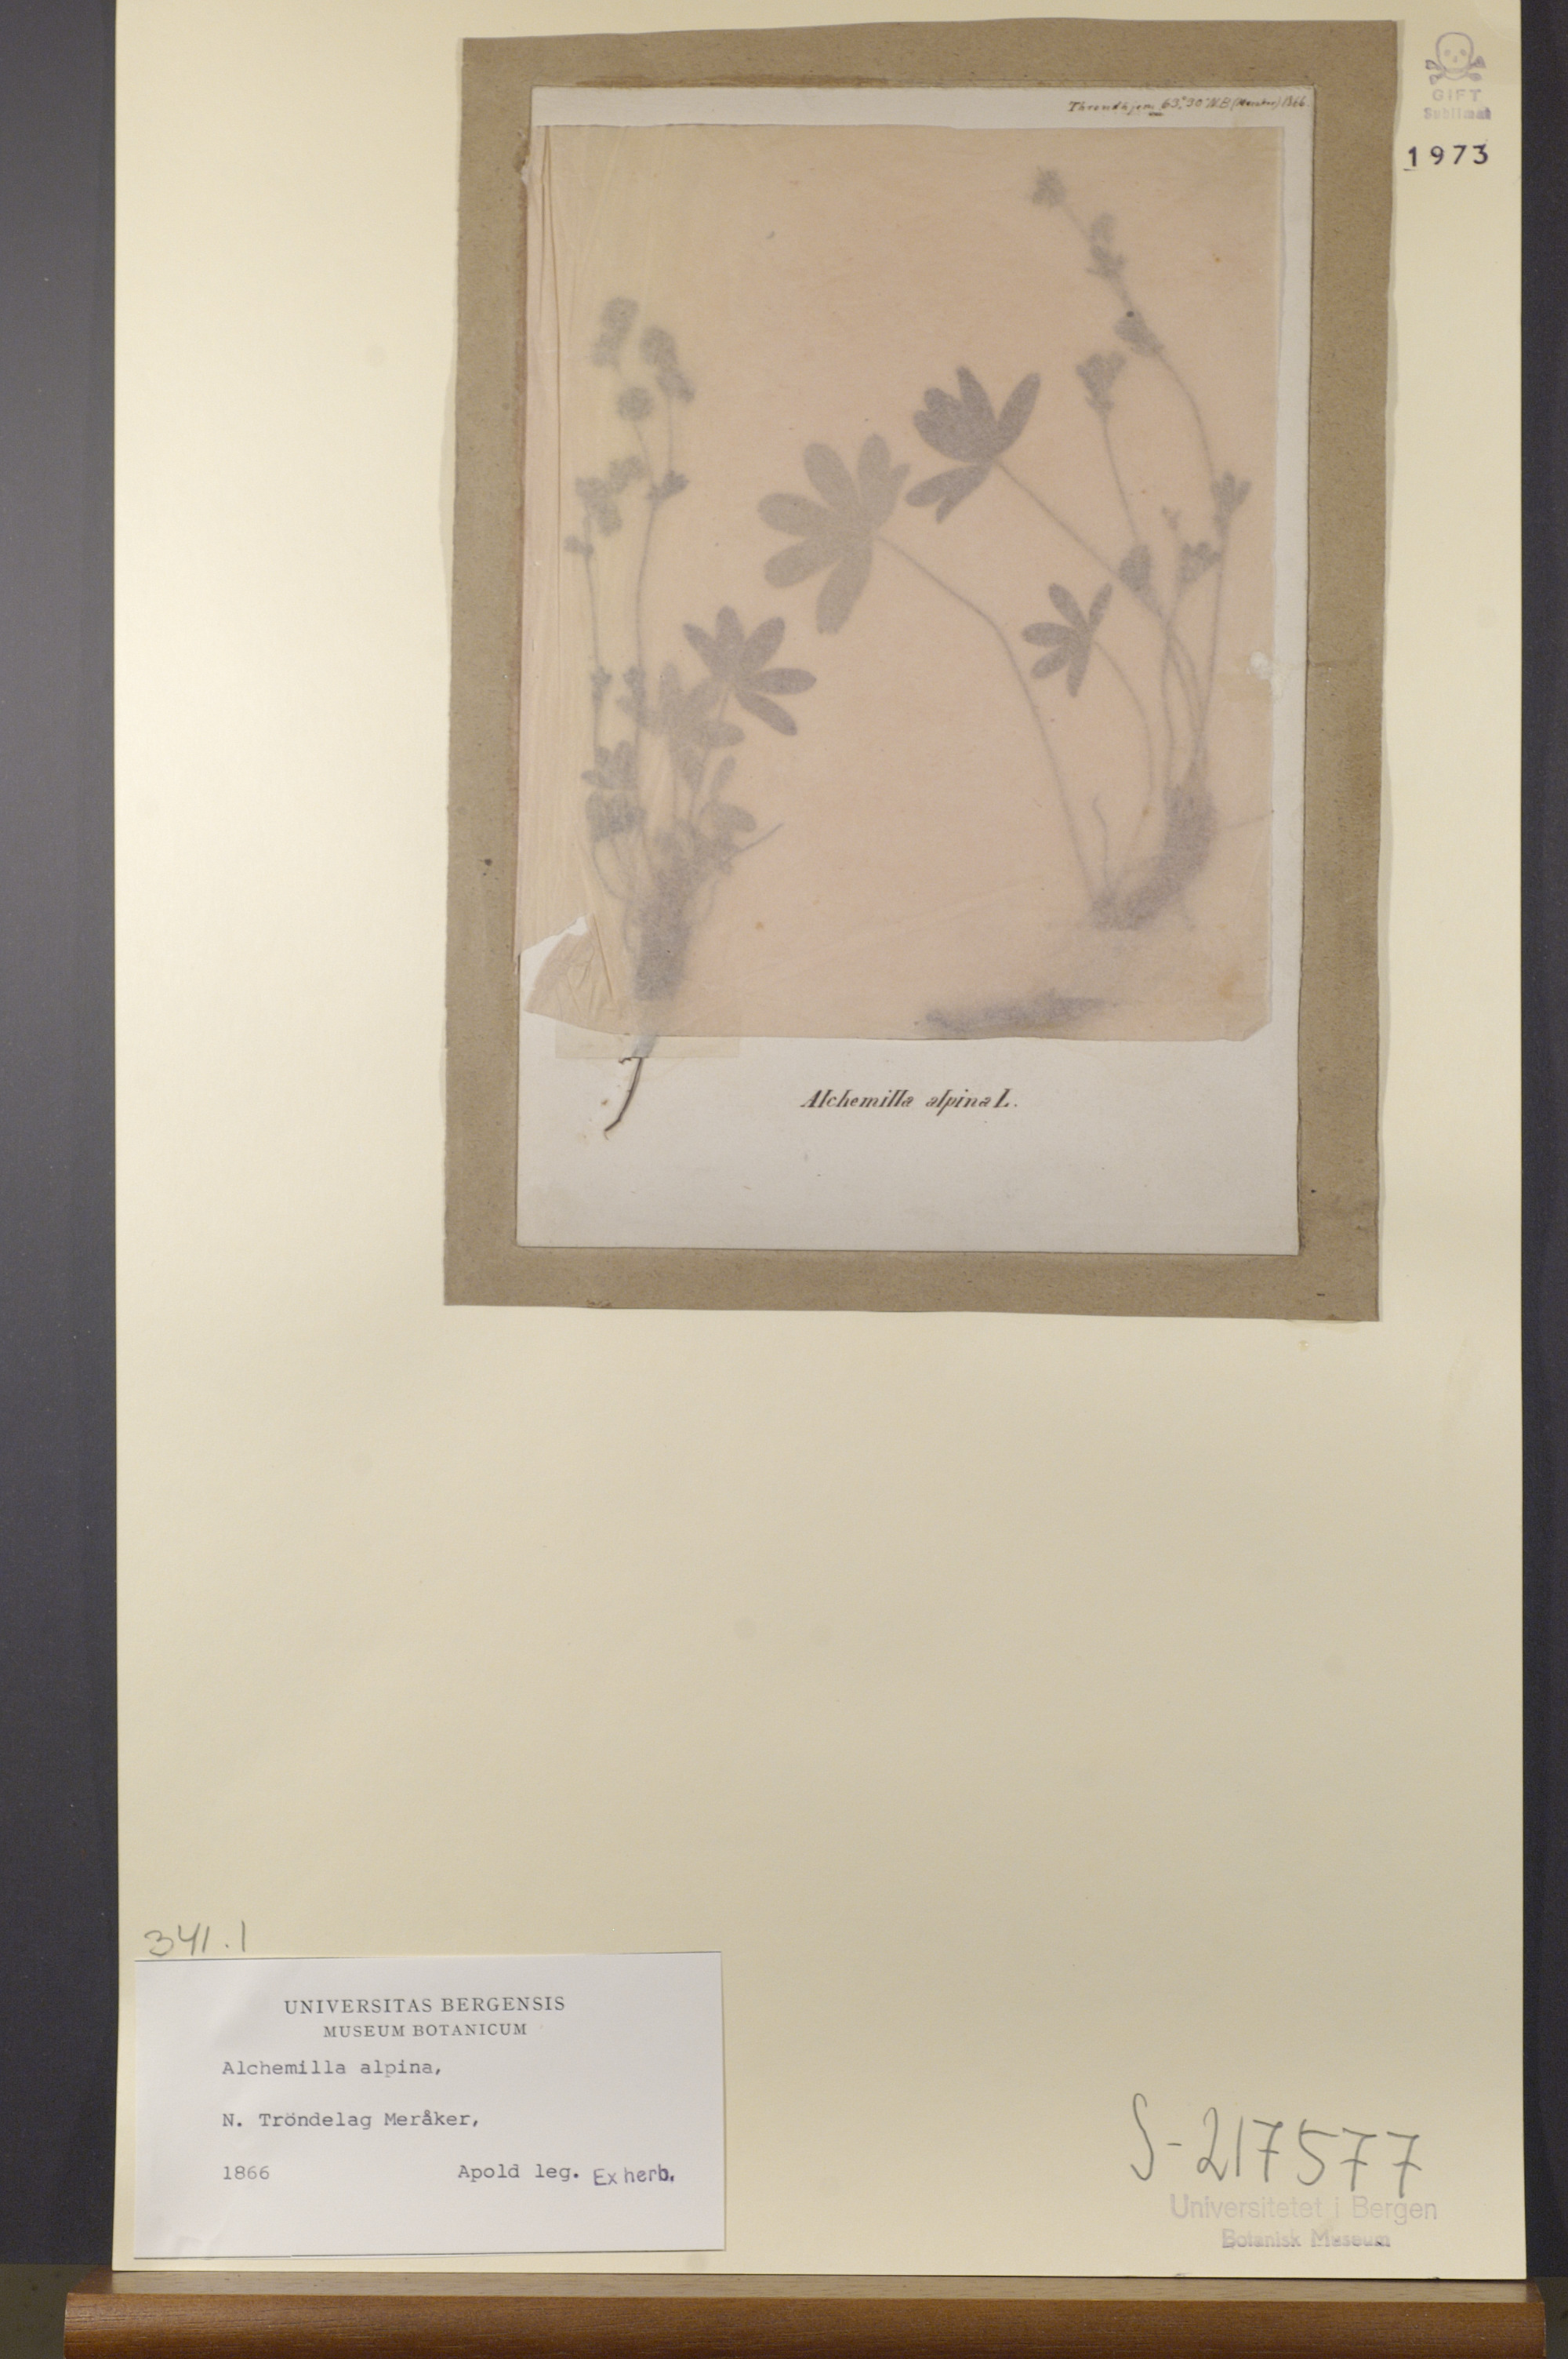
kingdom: Plantae
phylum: Tracheophyta
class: Magnoliopsida
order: Rosales
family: Rosaceae
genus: Alchemilla
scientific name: Alchemilla alpina
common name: Alpine lady's-mantle
